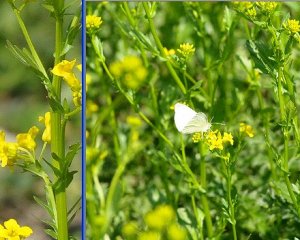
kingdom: Animalia
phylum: Arthropoda
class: Insecta
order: Lepidoptera
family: Pieridae
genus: Pieris
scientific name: Pieris rapae
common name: Cabbage White
